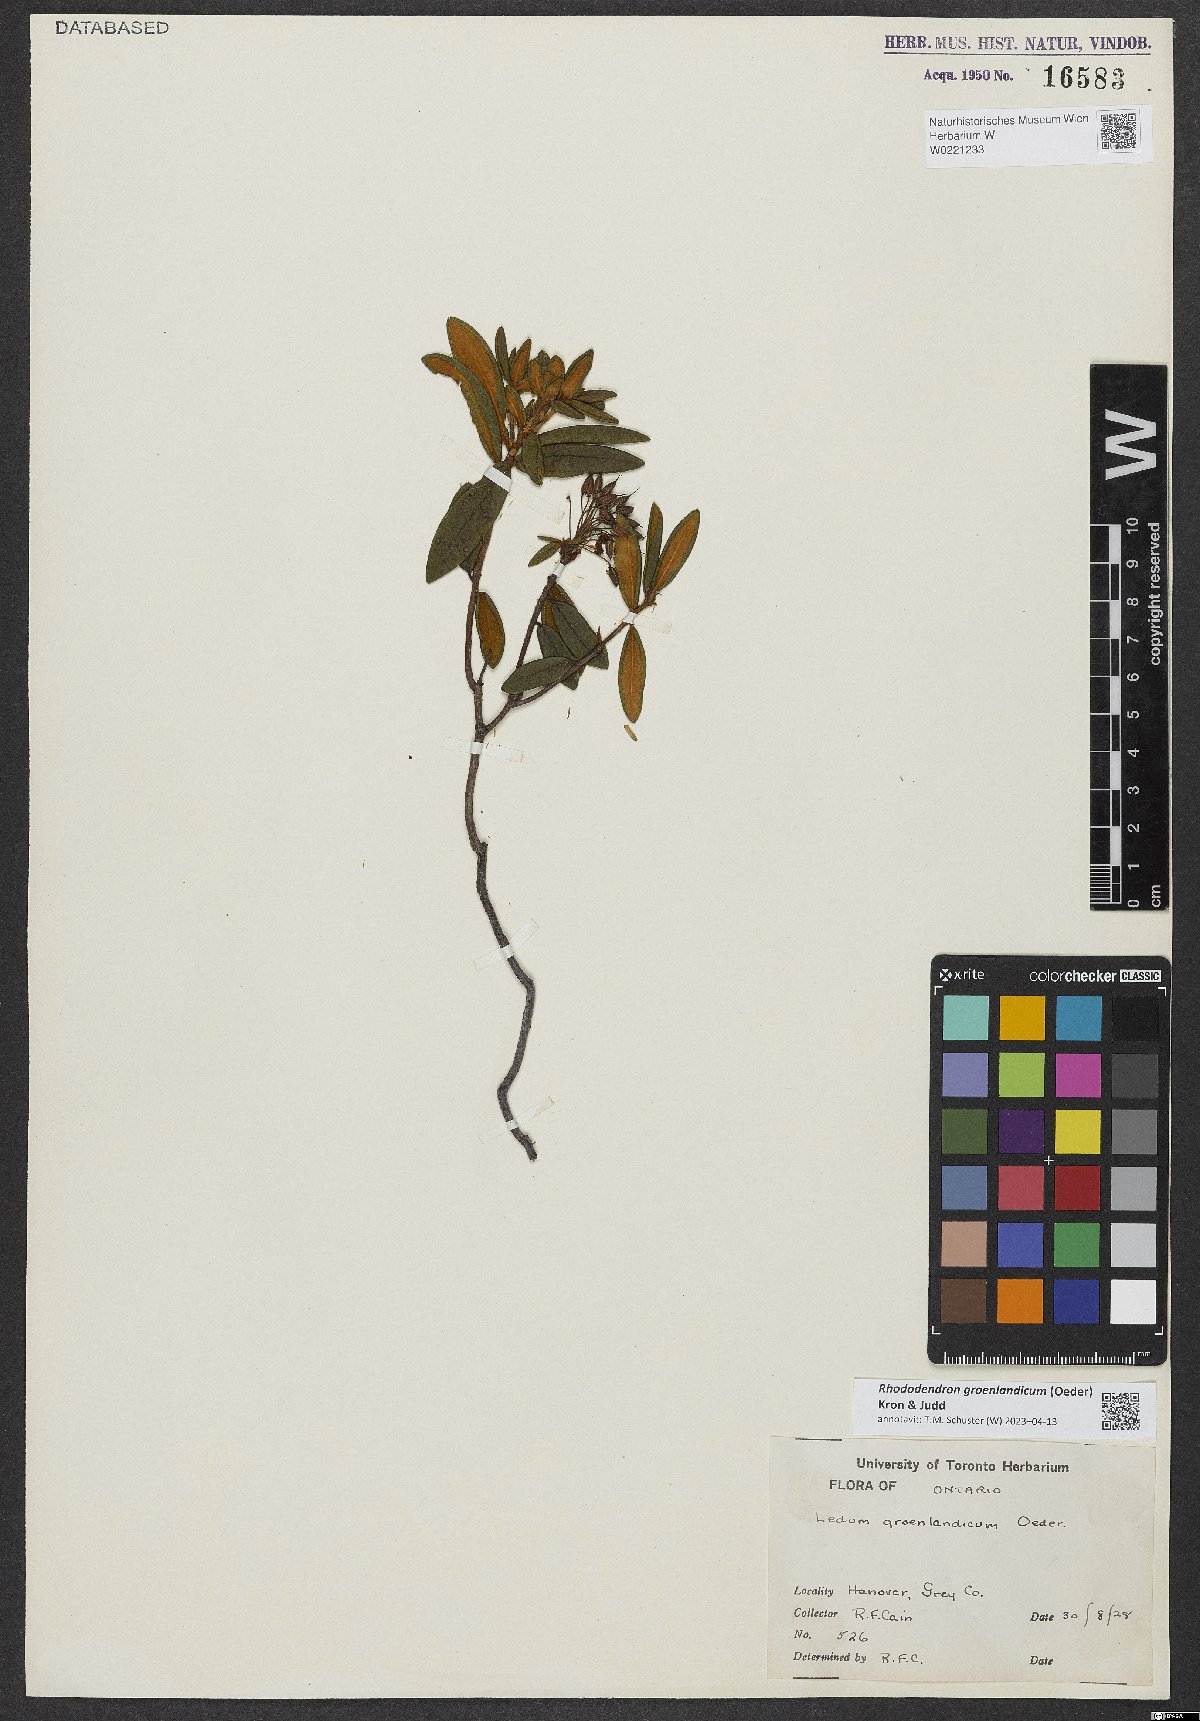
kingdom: Plantae
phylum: Tracheophyta
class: Magnoliopsida
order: Ericales
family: Ericaceae
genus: Rhododendron
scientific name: Rhododendron groenlandicum
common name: Bog labrador tea
